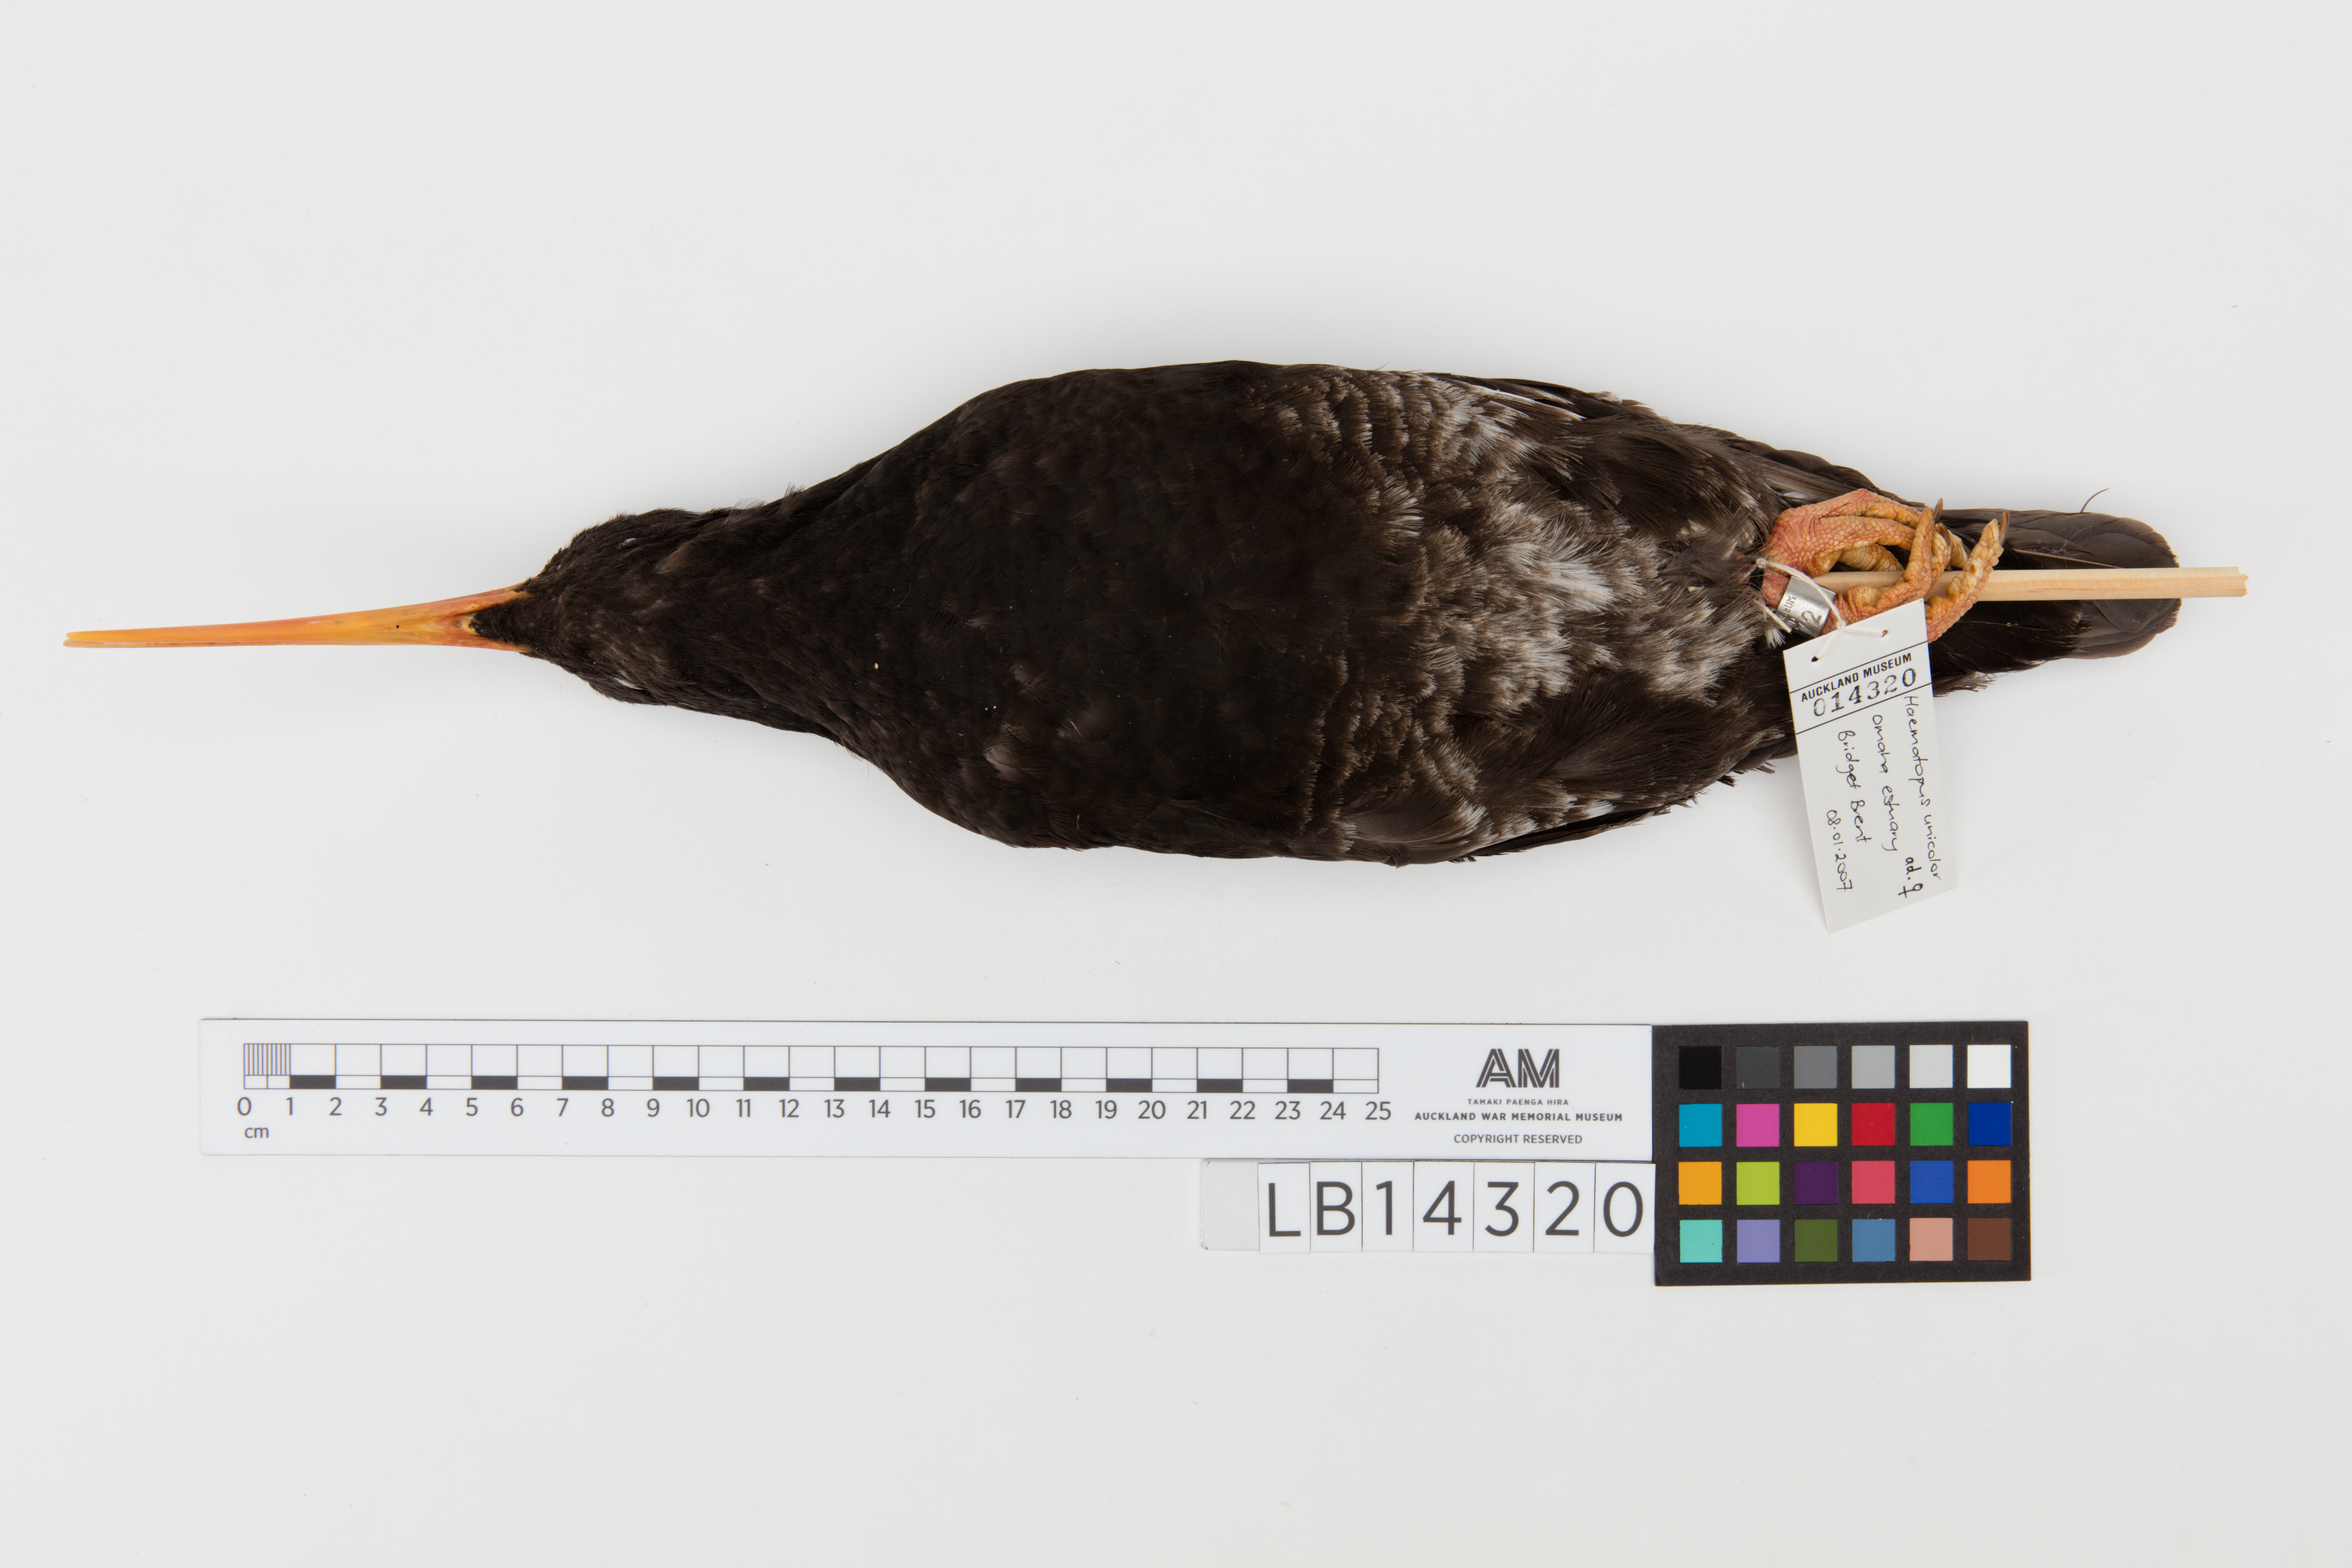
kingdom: Animalia
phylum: Chordata
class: Aves
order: Charadriiformes
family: Haematopodidae
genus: Haematopus
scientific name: Haematopus unicolor
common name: Variable oystercatcher
